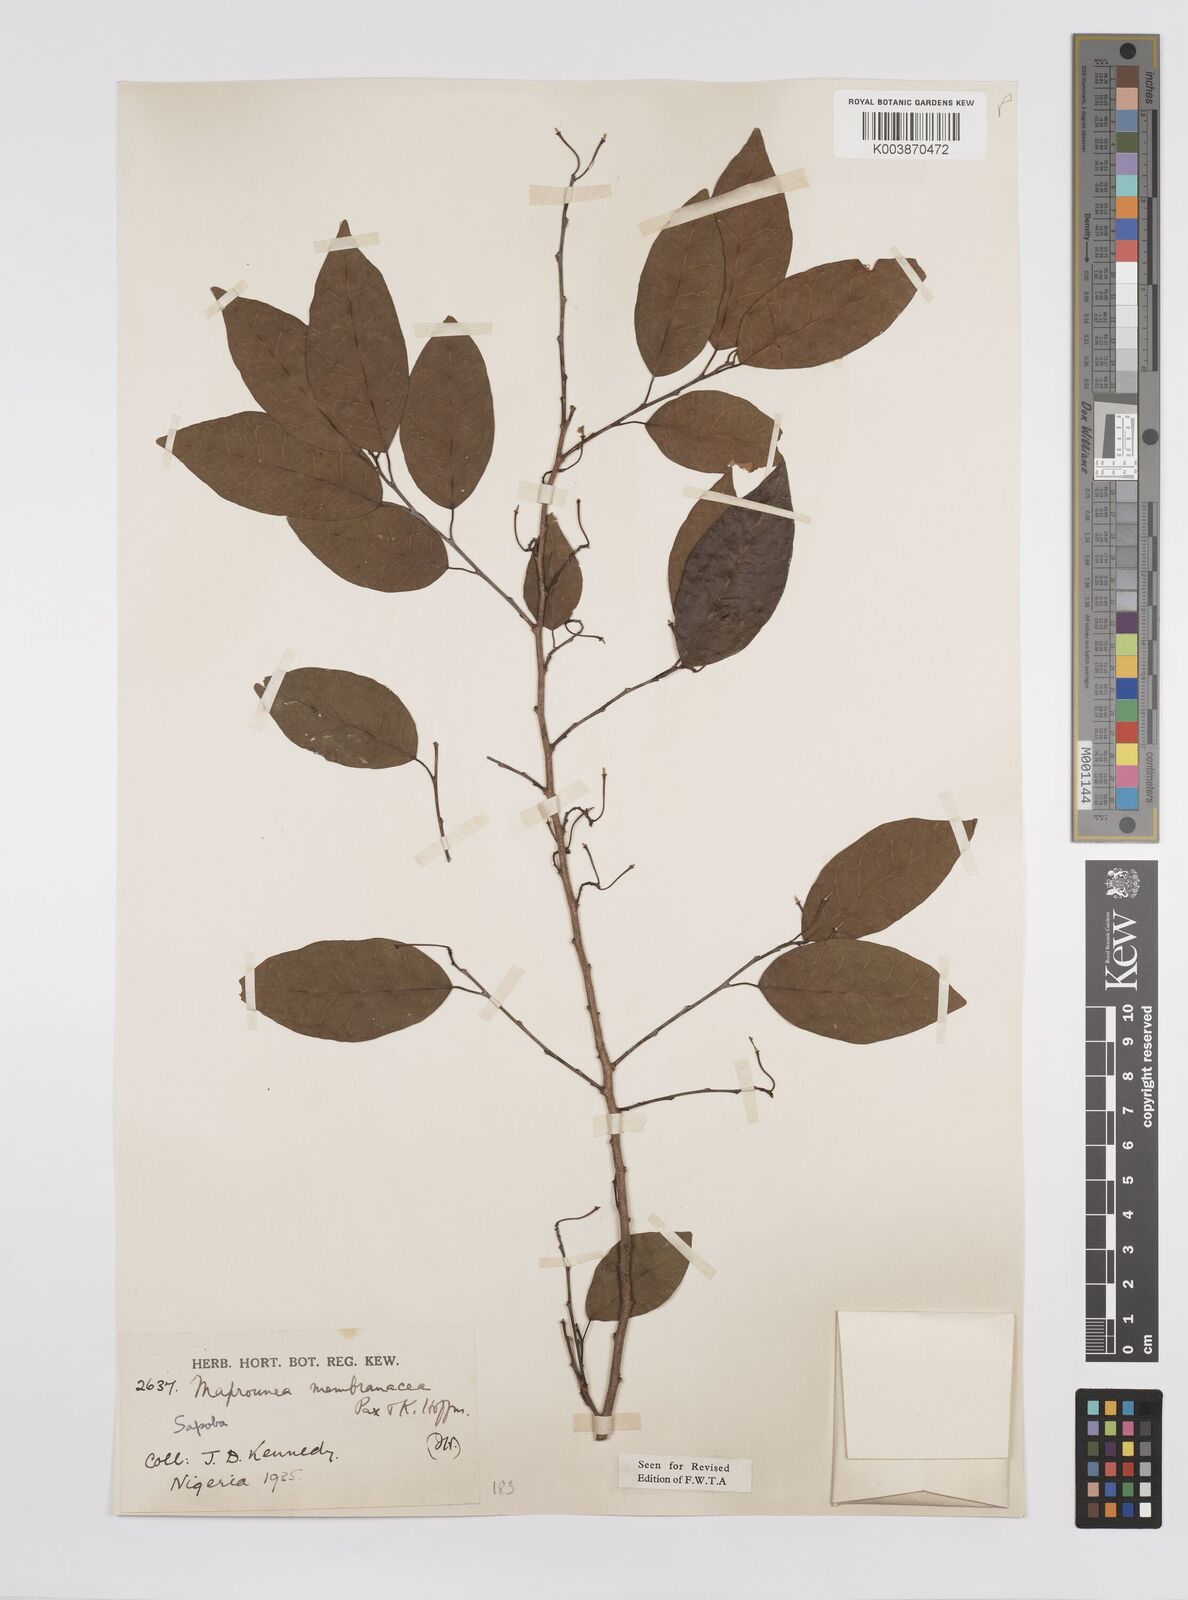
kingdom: Plantae
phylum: Tracheophyta
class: Magnoliopsida
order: Malpighiales
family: Euphorbiaceae
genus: Maprounea
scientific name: Maprounea membranacea
